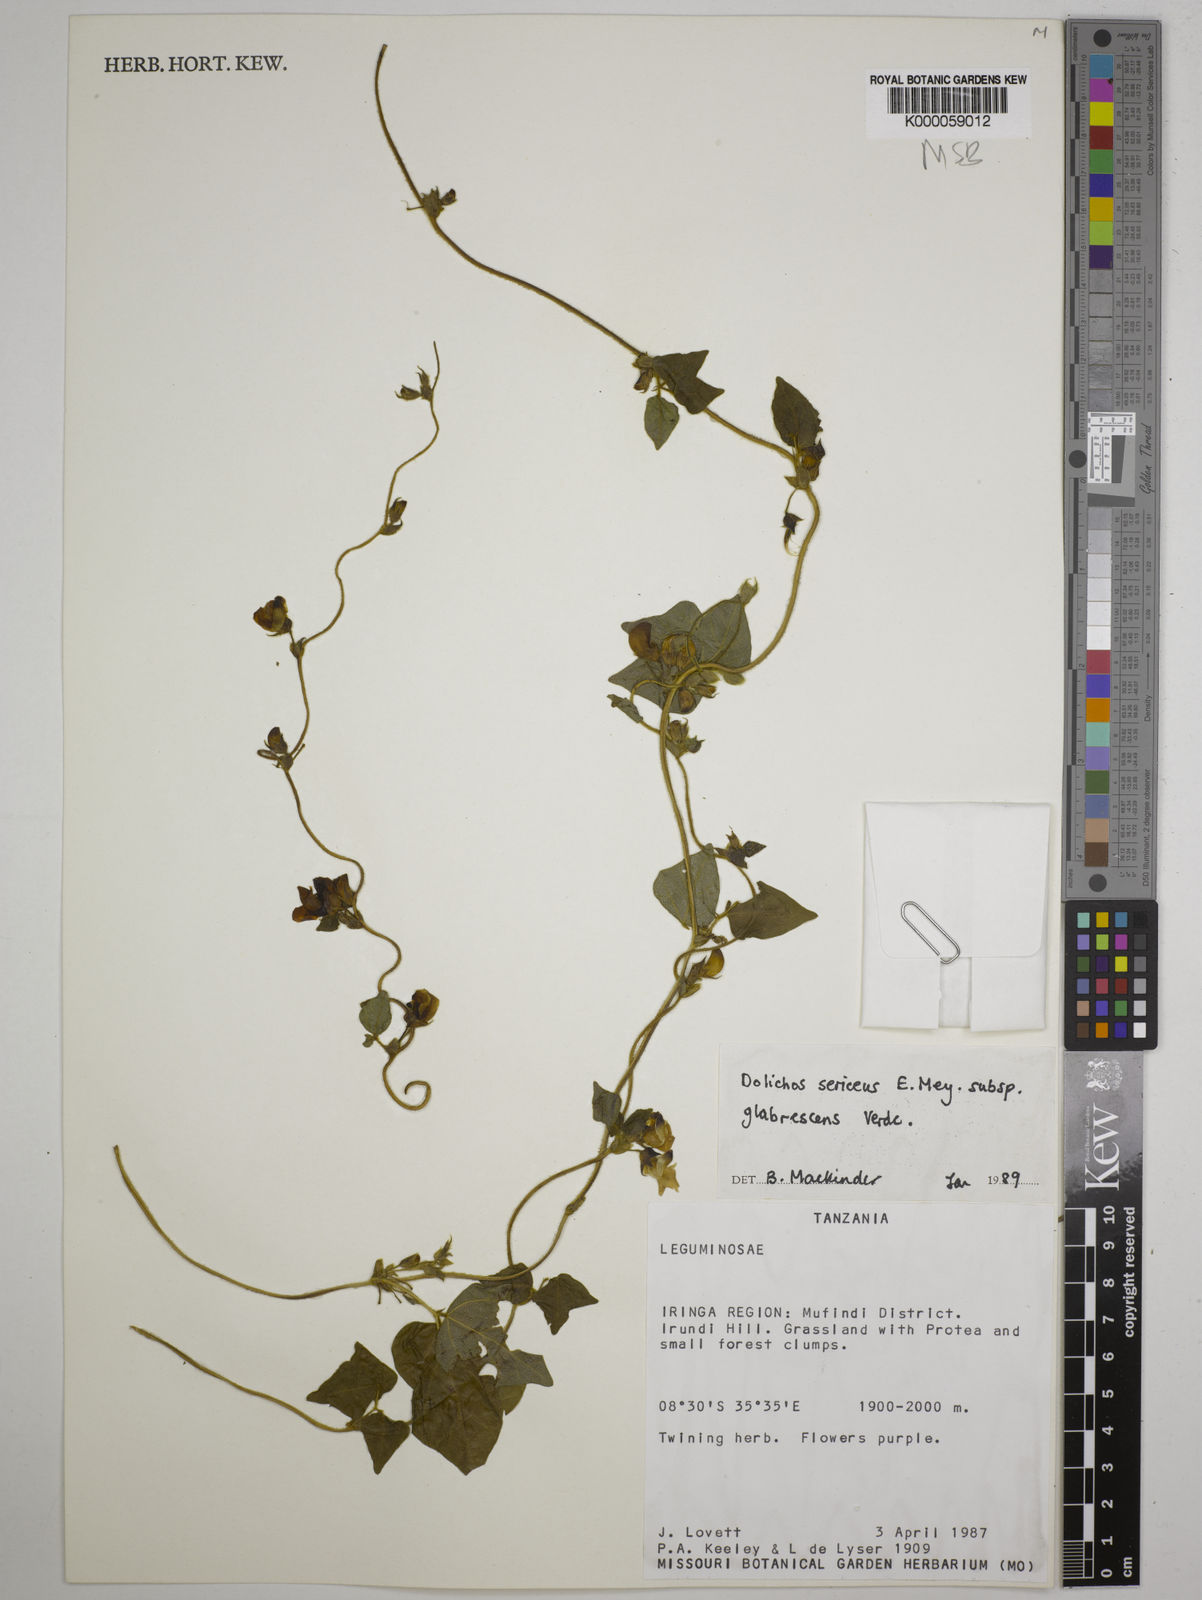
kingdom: Plantae
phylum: Tracheophyta
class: Magnoliopsida
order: Fabales
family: Fabaceae
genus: Dolichos
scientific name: Dolichos sericeus
